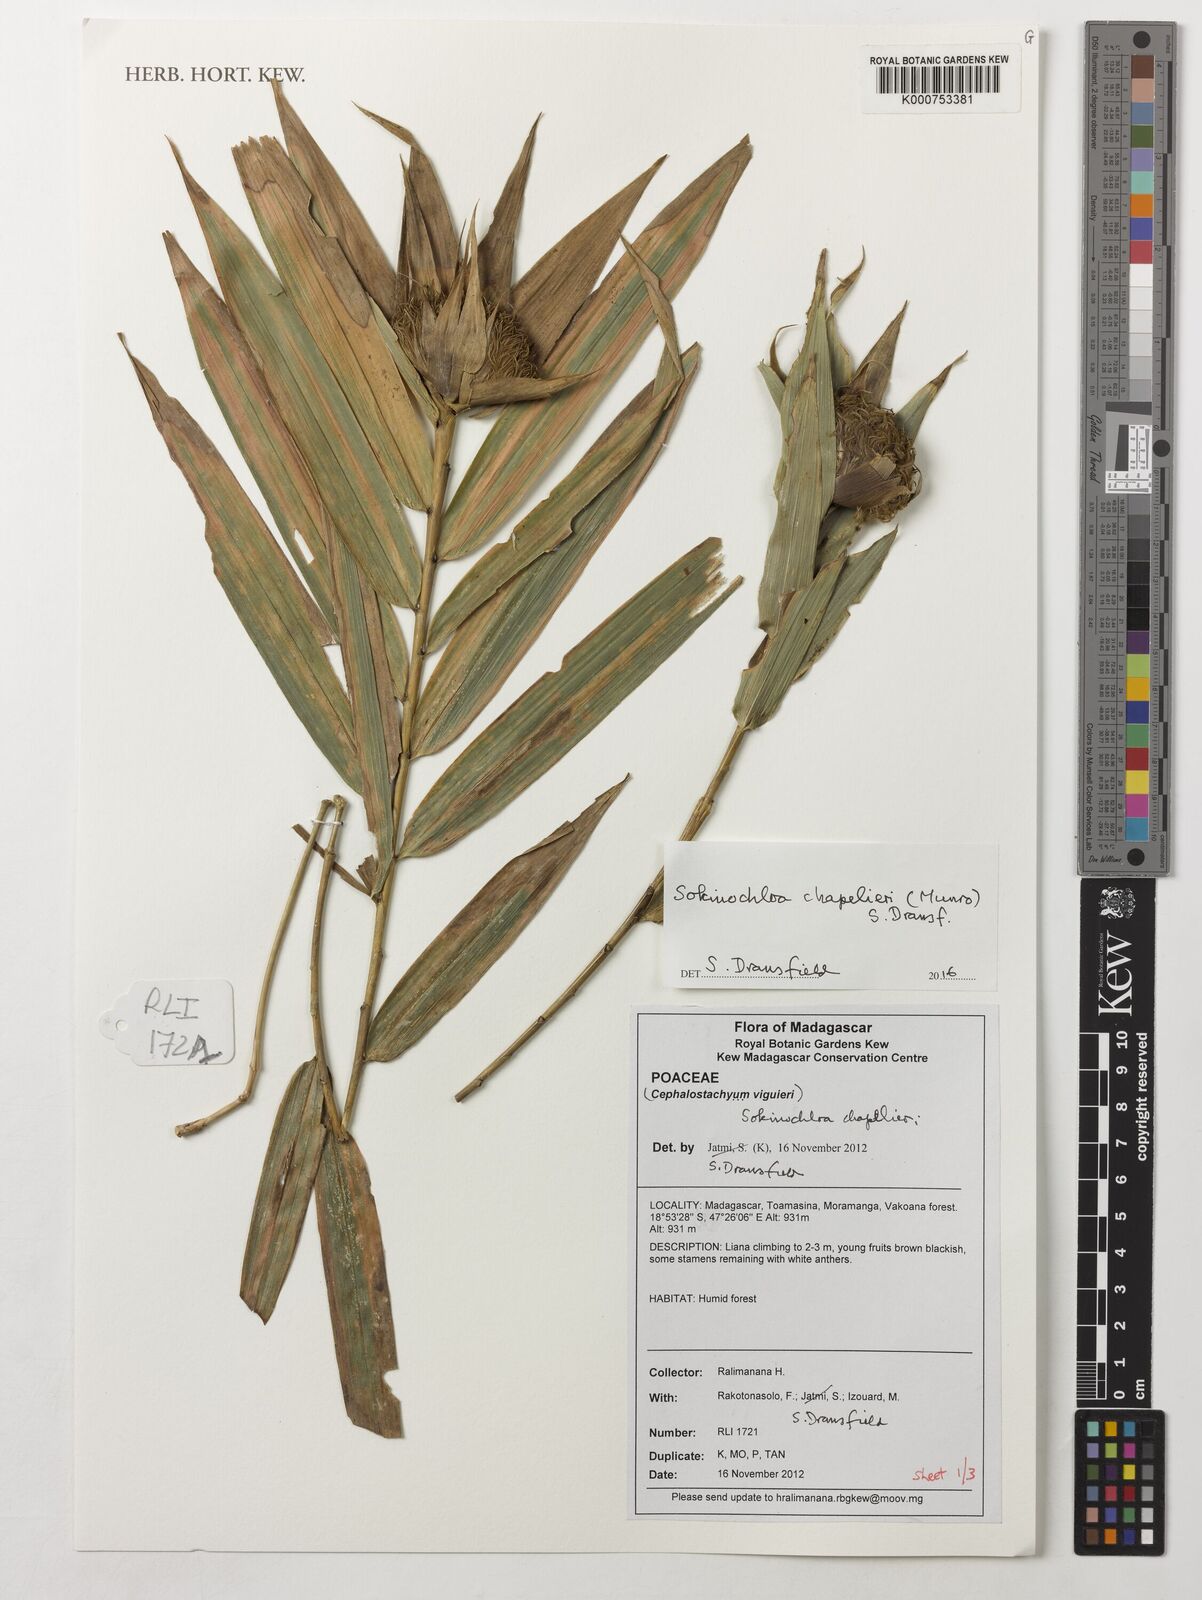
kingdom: Plantae
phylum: Tracheophyta
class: Liliopsida
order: Poales
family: Poaceae
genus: Sokinochloa
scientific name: Sokinochloa chapelieri
